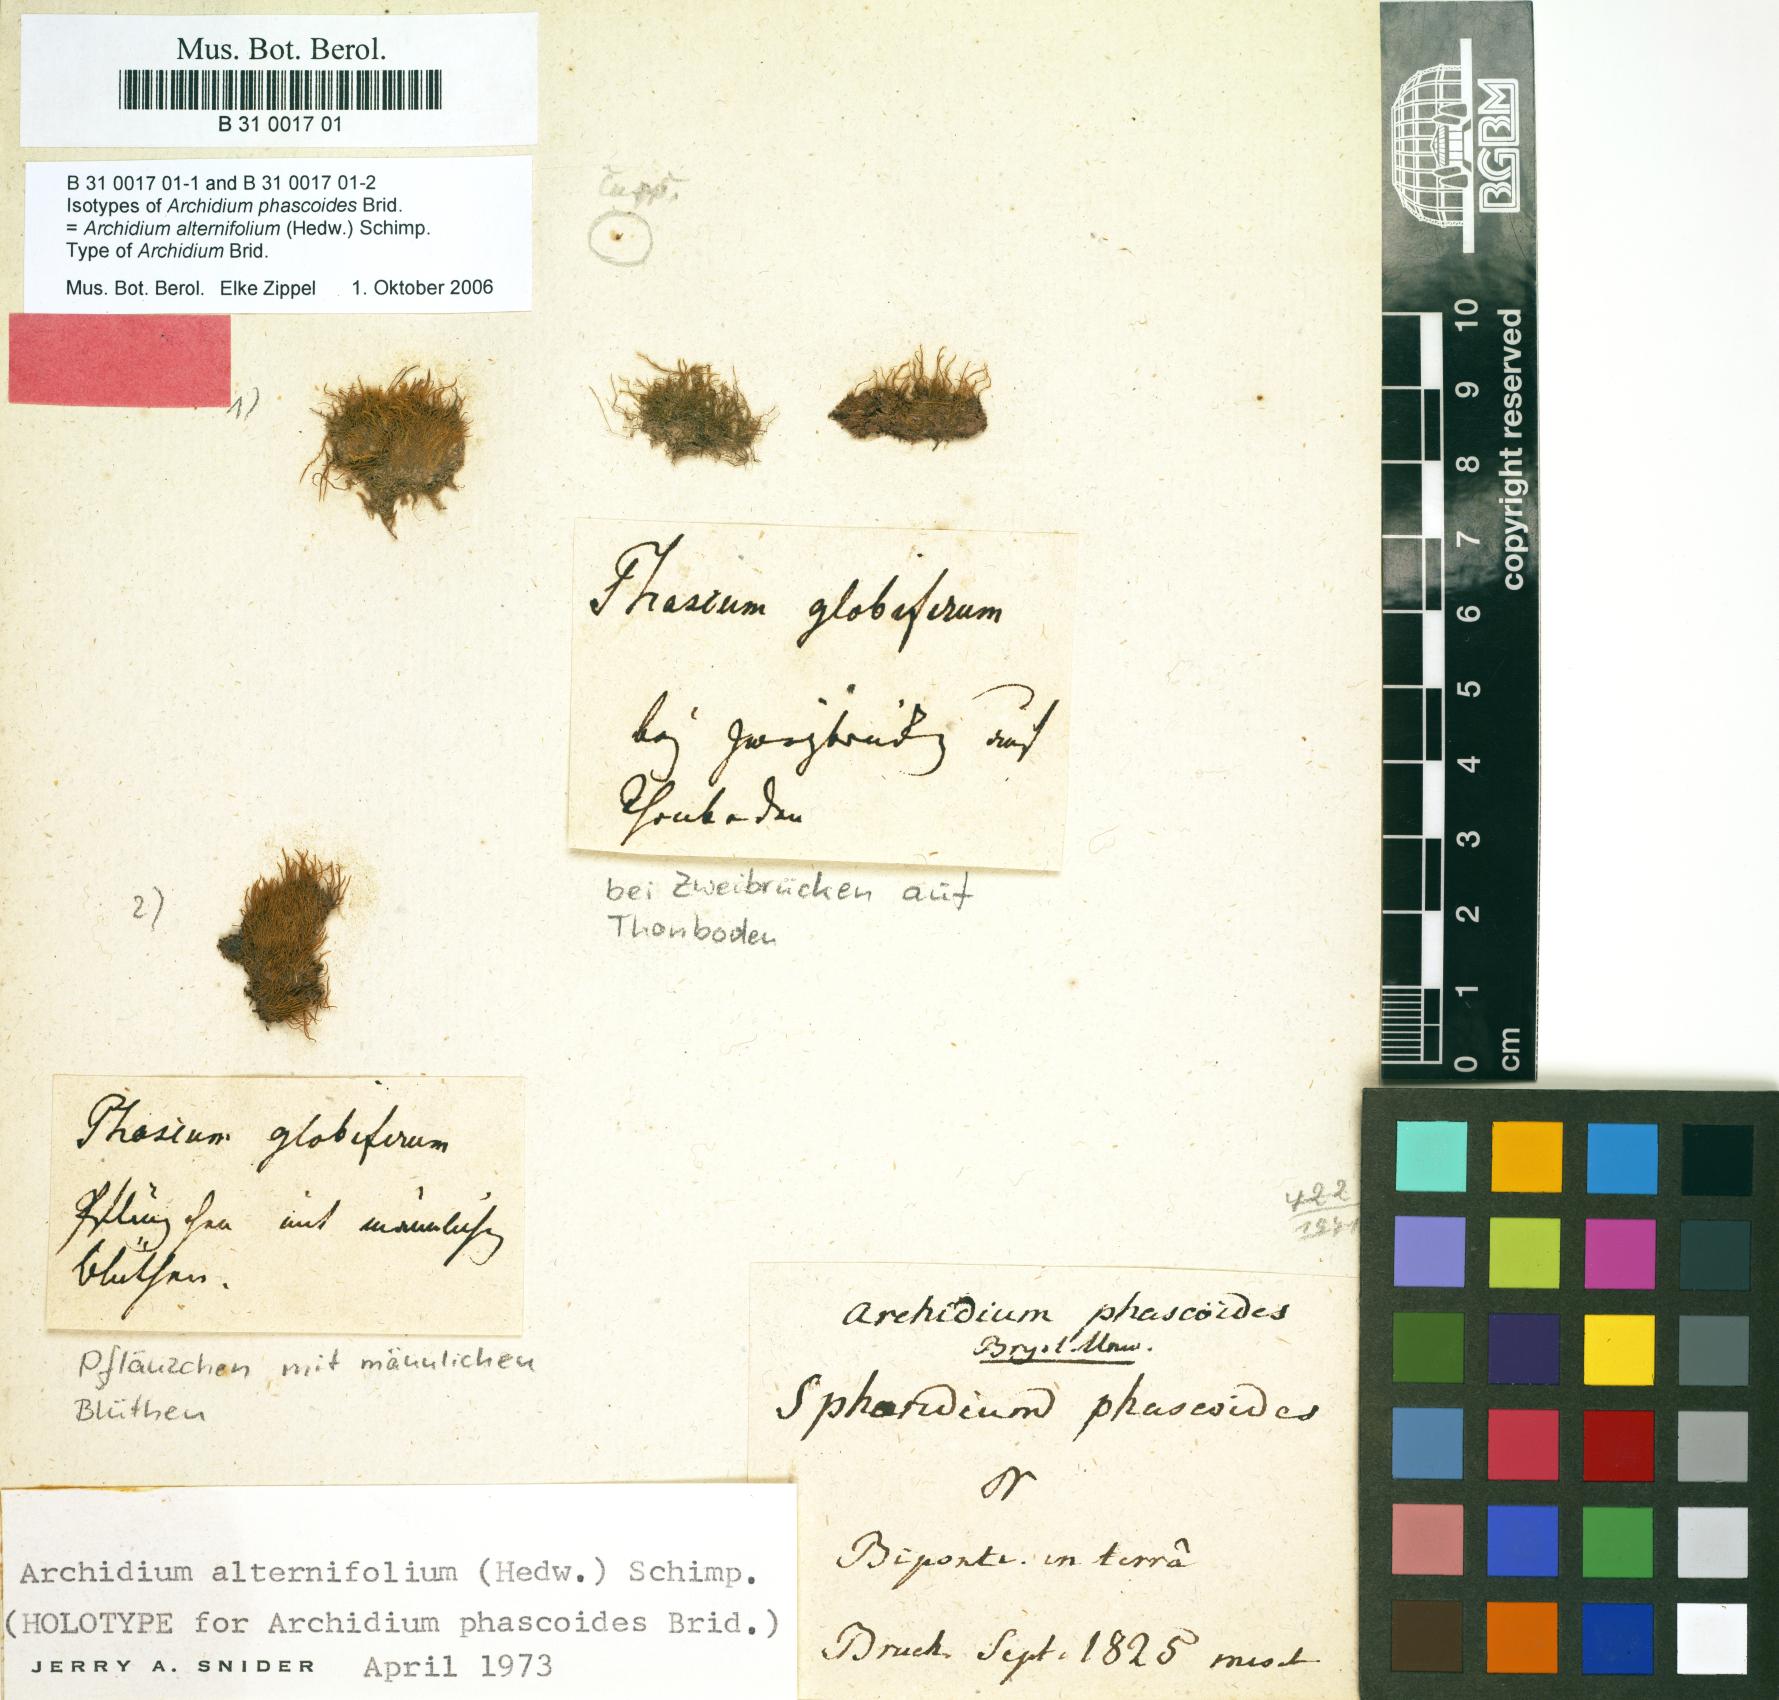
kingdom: Plantae
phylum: Bryophyta
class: Bryopsida
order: Archidiales
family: Archidiaceae
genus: Archidium
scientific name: Archidium alternifolium
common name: Clay earth-moss
